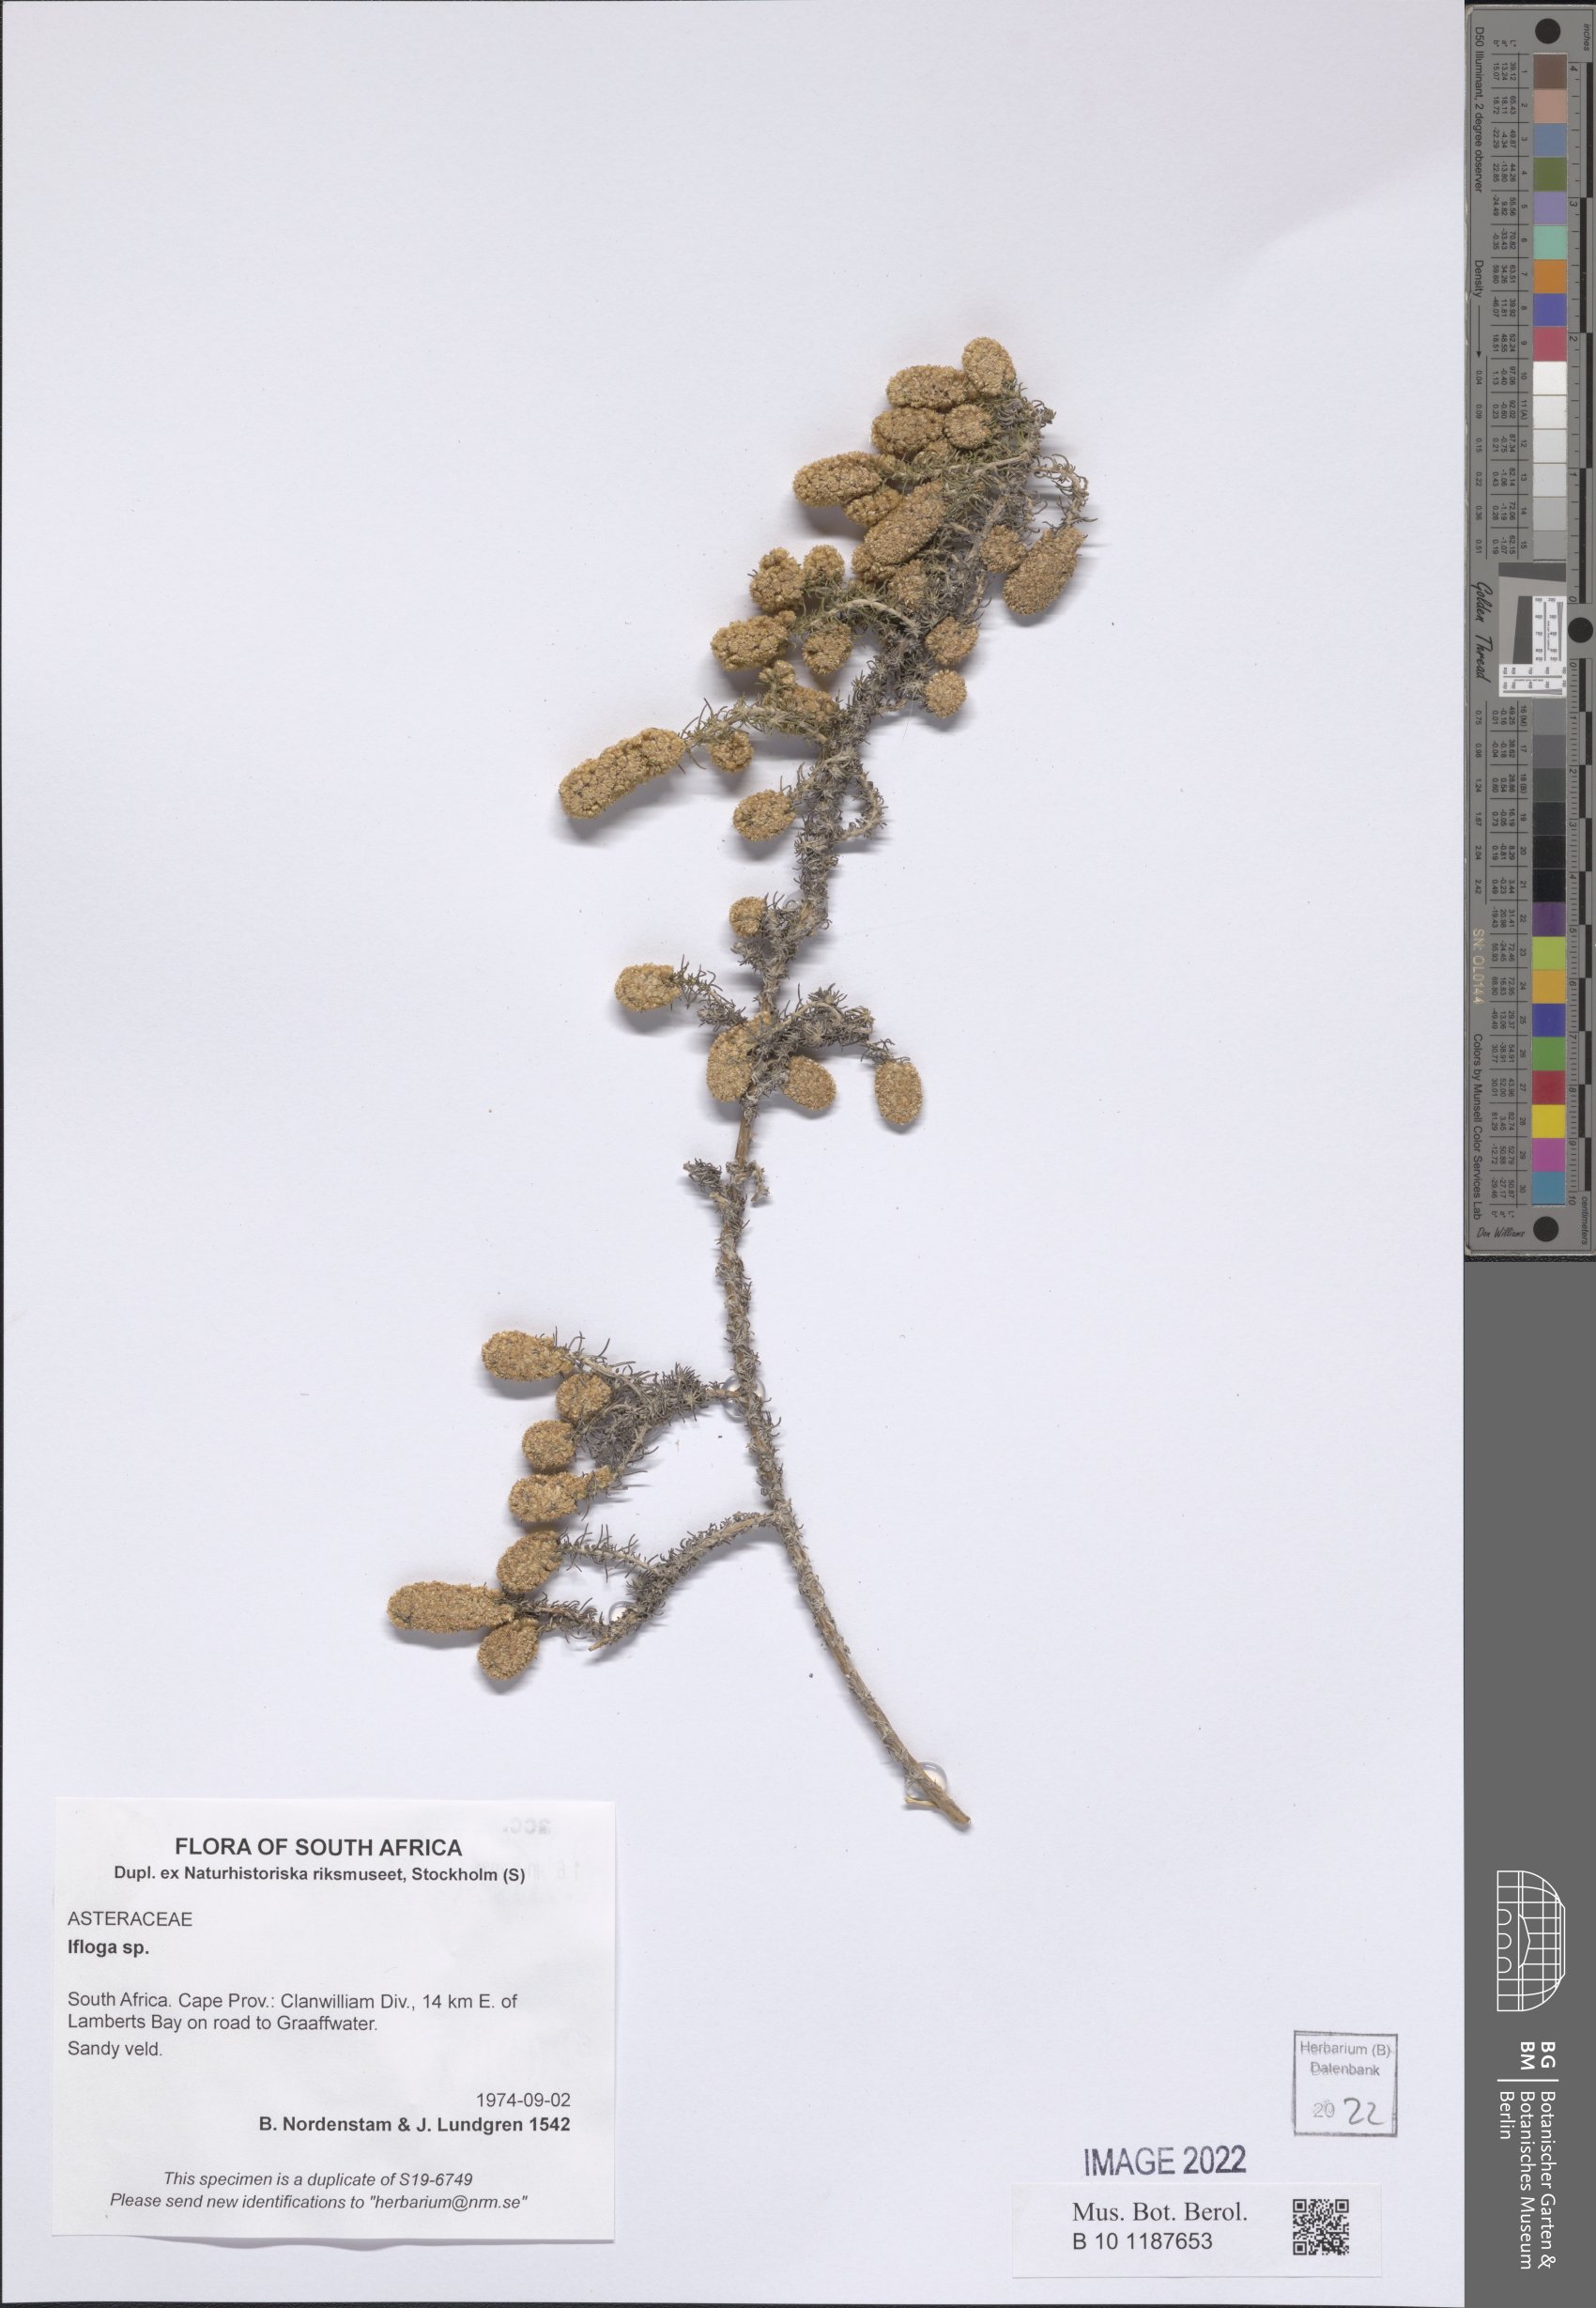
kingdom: Plantae
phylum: Tracheophyta
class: Magnoliopsida
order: Asterales
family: Asteraceae
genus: Ifloga
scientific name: Ifloga
